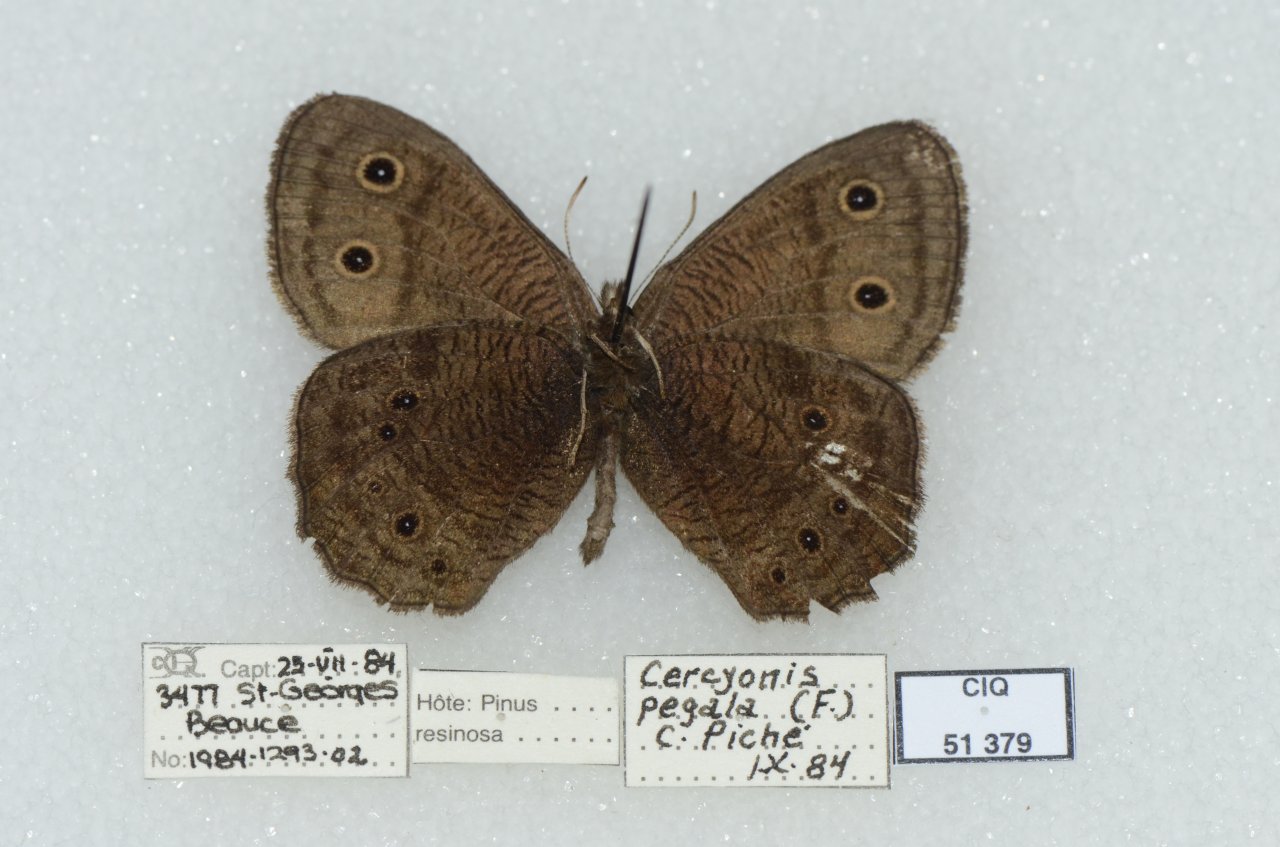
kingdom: Animalia
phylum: Arthropoda
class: Insecta
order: Lepidoptera
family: Nymphalidae
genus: Cercyonis
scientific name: Cercyonis pegala
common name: Common Wood-Nymph
